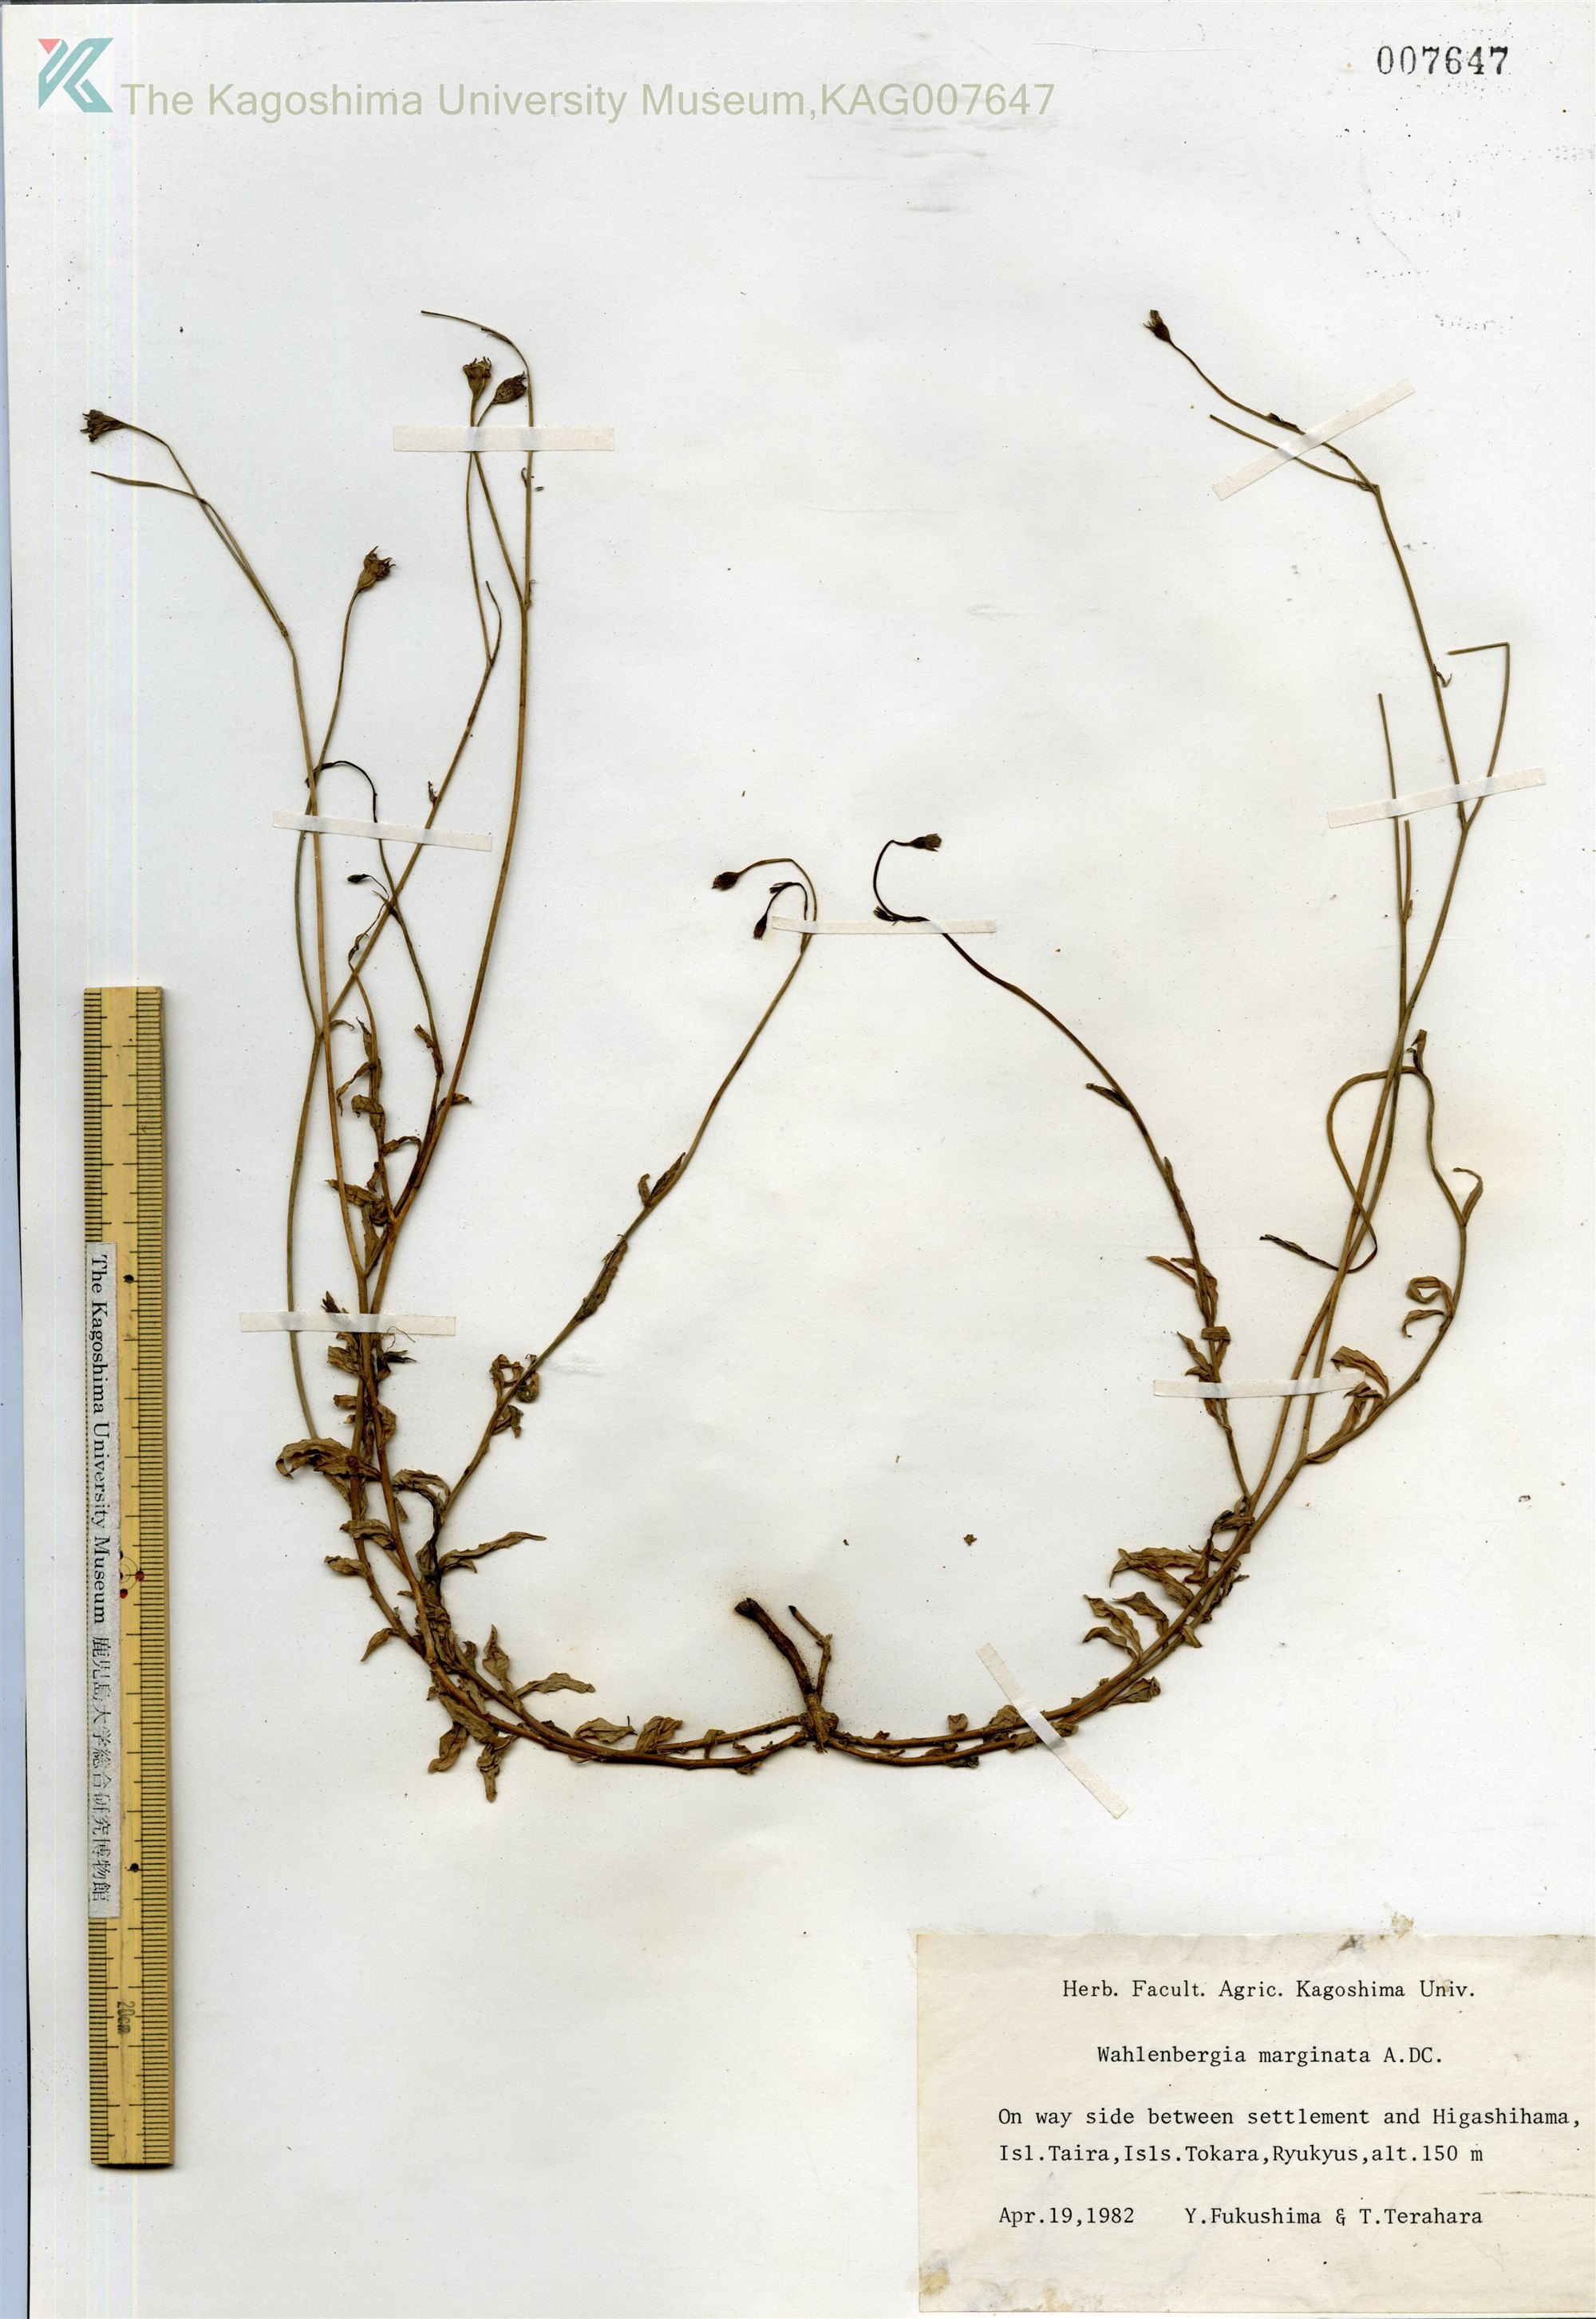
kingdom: Plantae
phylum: Tracheophyta
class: Magnoliopsida
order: Asterales
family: Campanulaceae
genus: Wahlenbergia
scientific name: Wahlenbergia marginata
